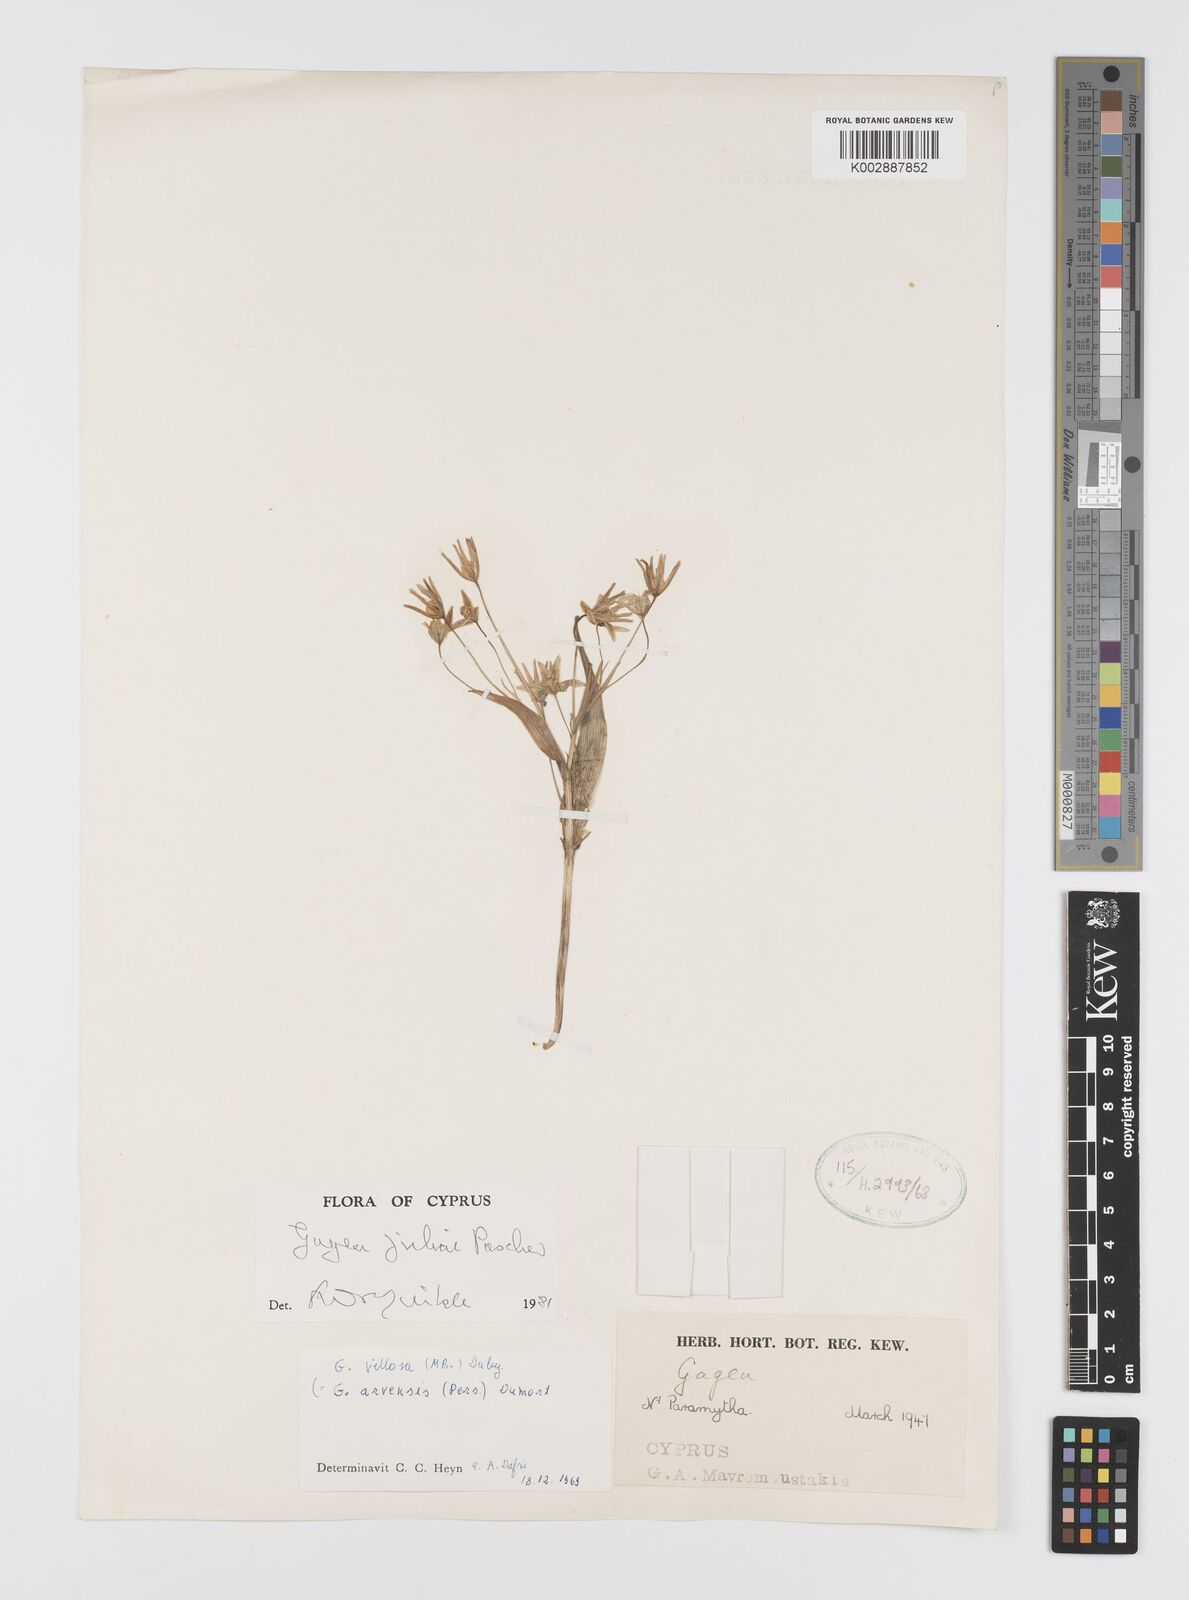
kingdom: Plantae
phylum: Tracheophyta
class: Liliopsida
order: Liliales
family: Liliaceae
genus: Gagea
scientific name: Gagea juliae
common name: Julia’s gagea
